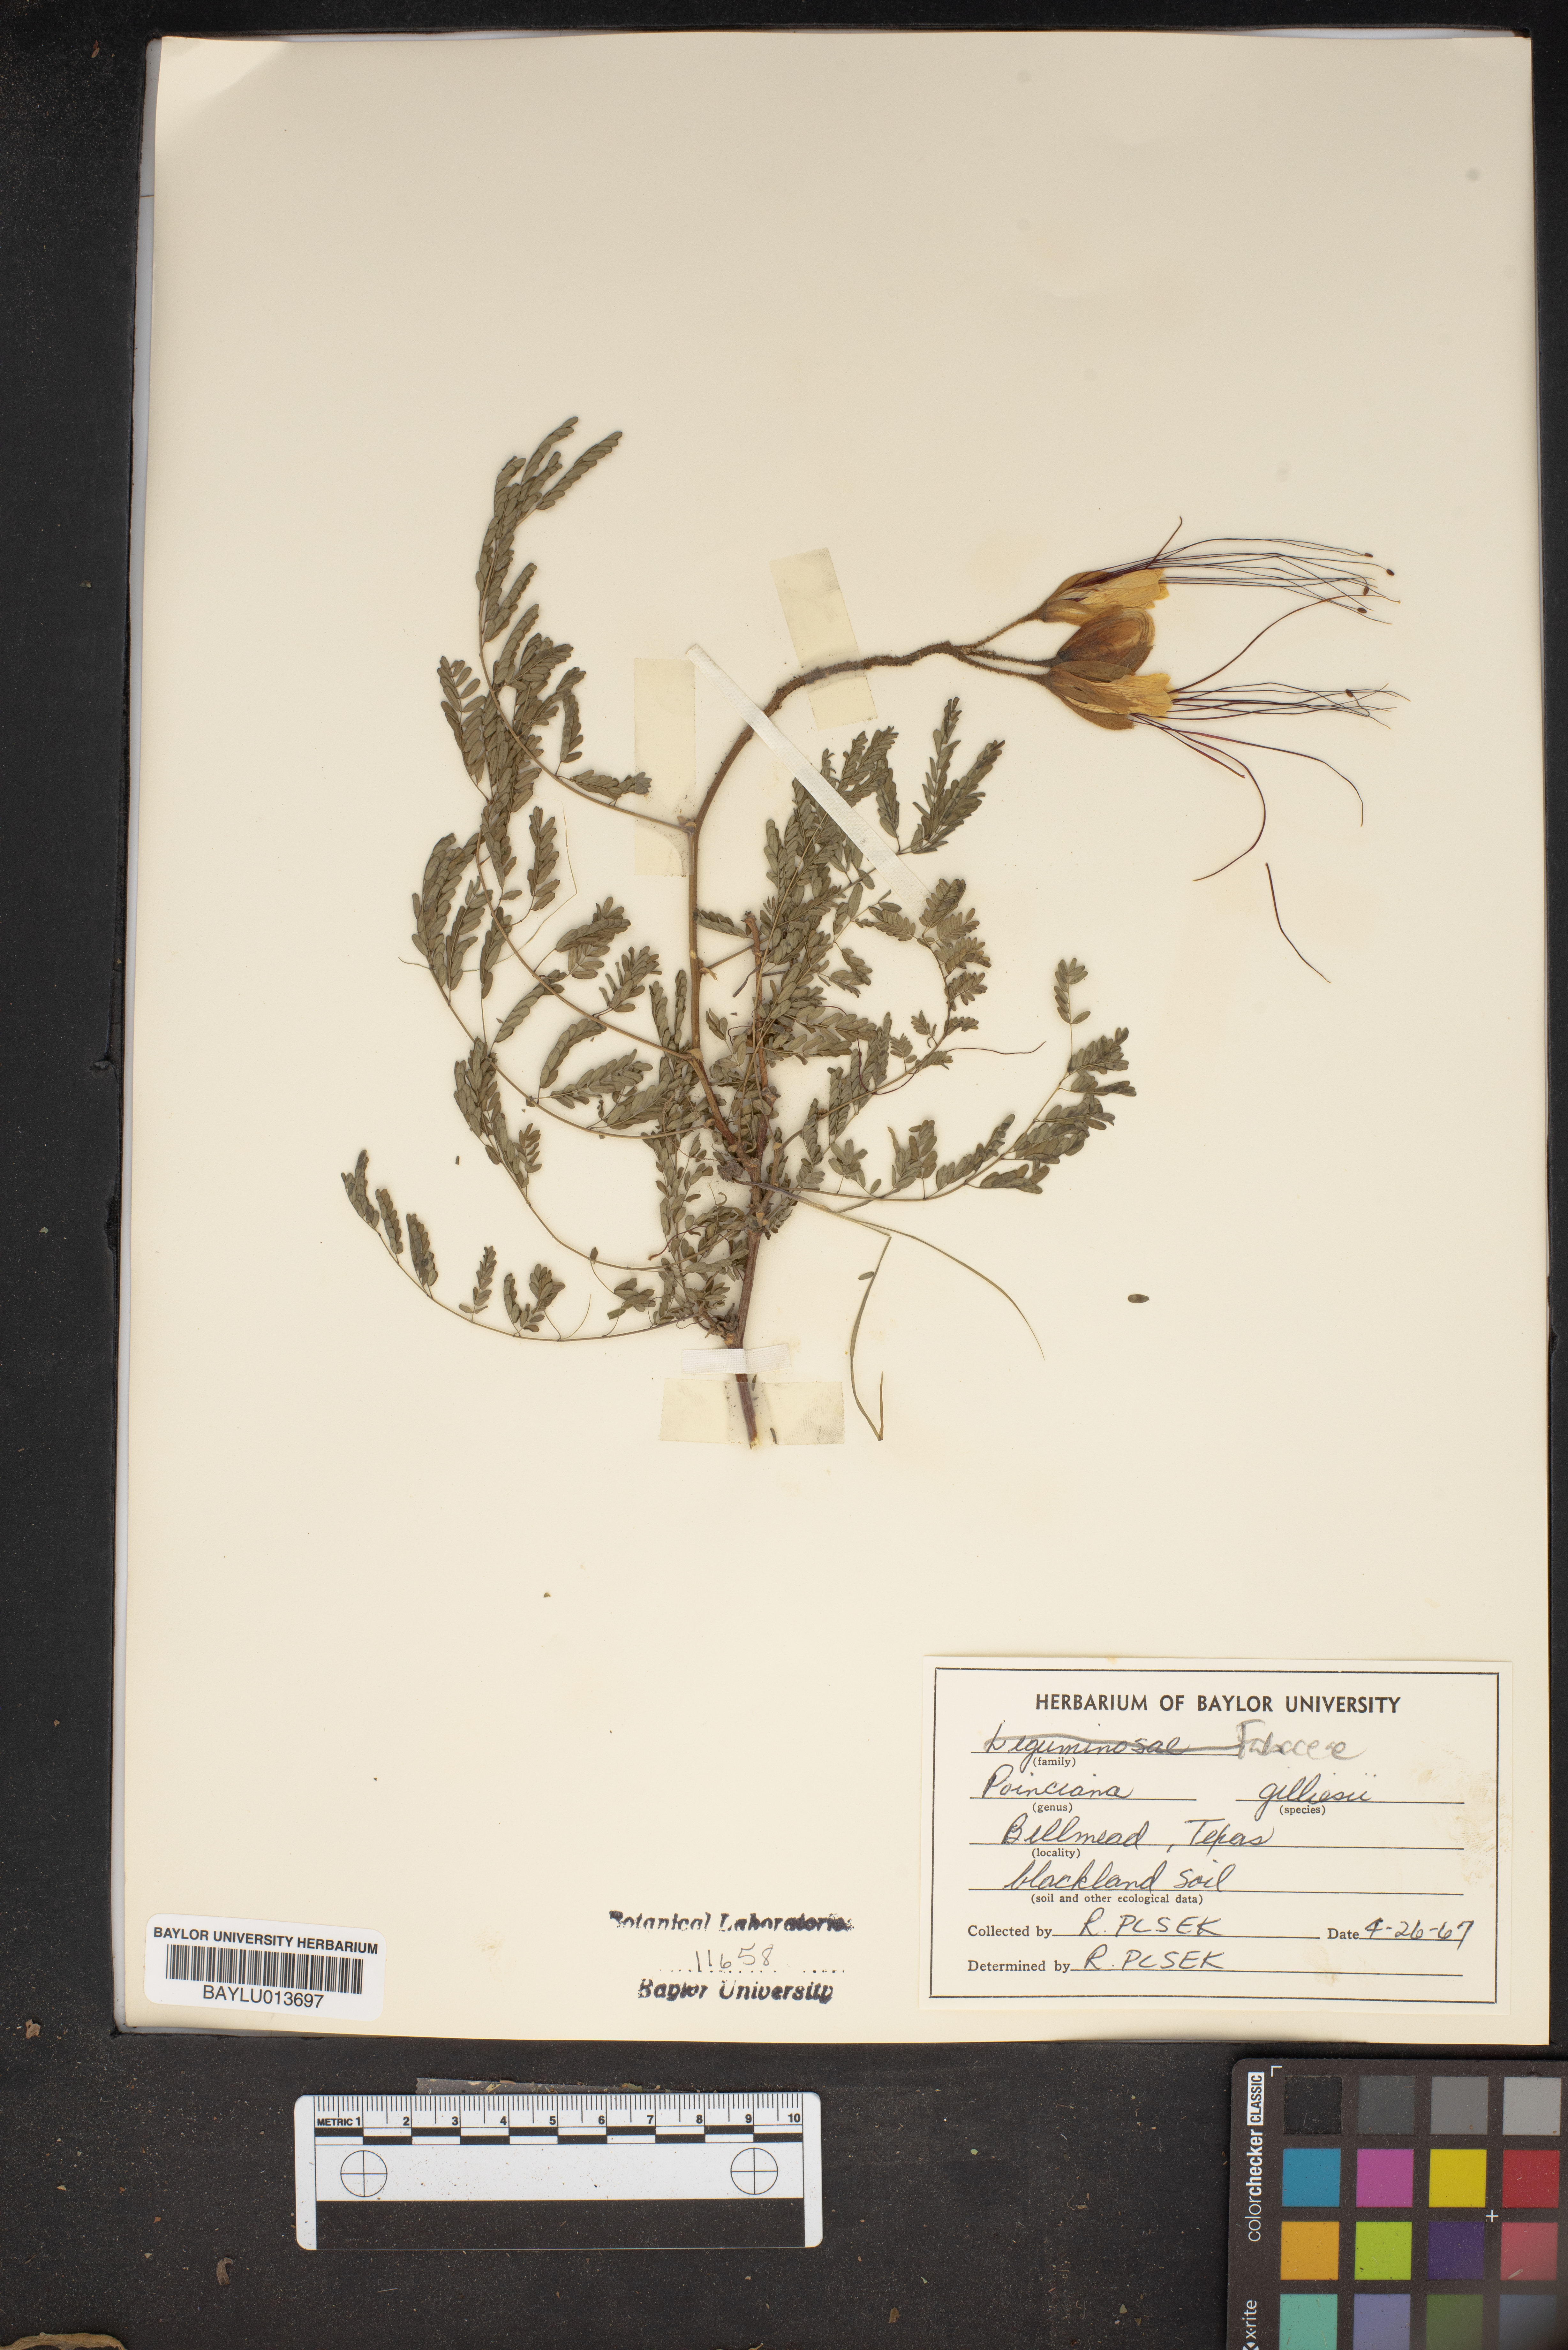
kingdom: Plantae
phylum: Tracheophyta
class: Magnoliopsida
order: Fabales
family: Fabaceae
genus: Erythrostemon
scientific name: Erythrostemon gilliesii
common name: Bird-of-paradise shrub
